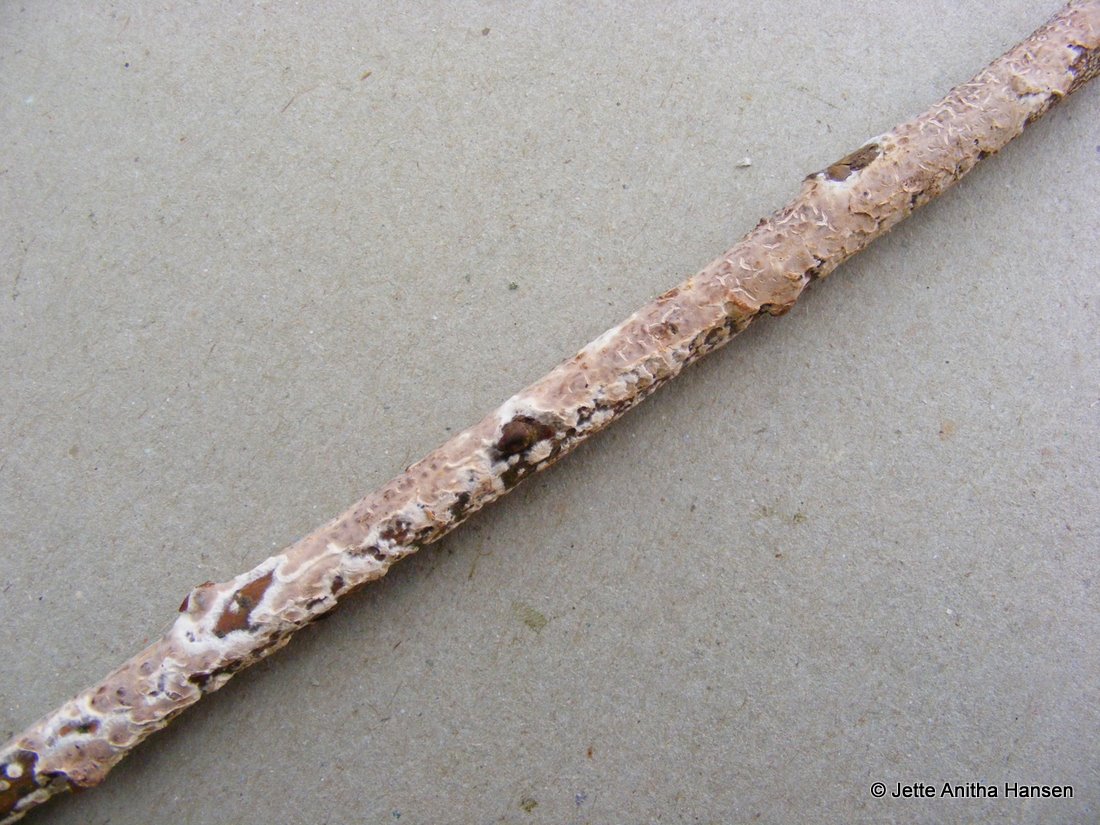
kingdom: Fungi
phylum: Basidiomycota
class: Agaricomycetes
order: Agaricales
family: Physalacriaceae
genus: Cylindrobasidium
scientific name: Cylindrobasidium evolvens
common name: sprækkehinde
